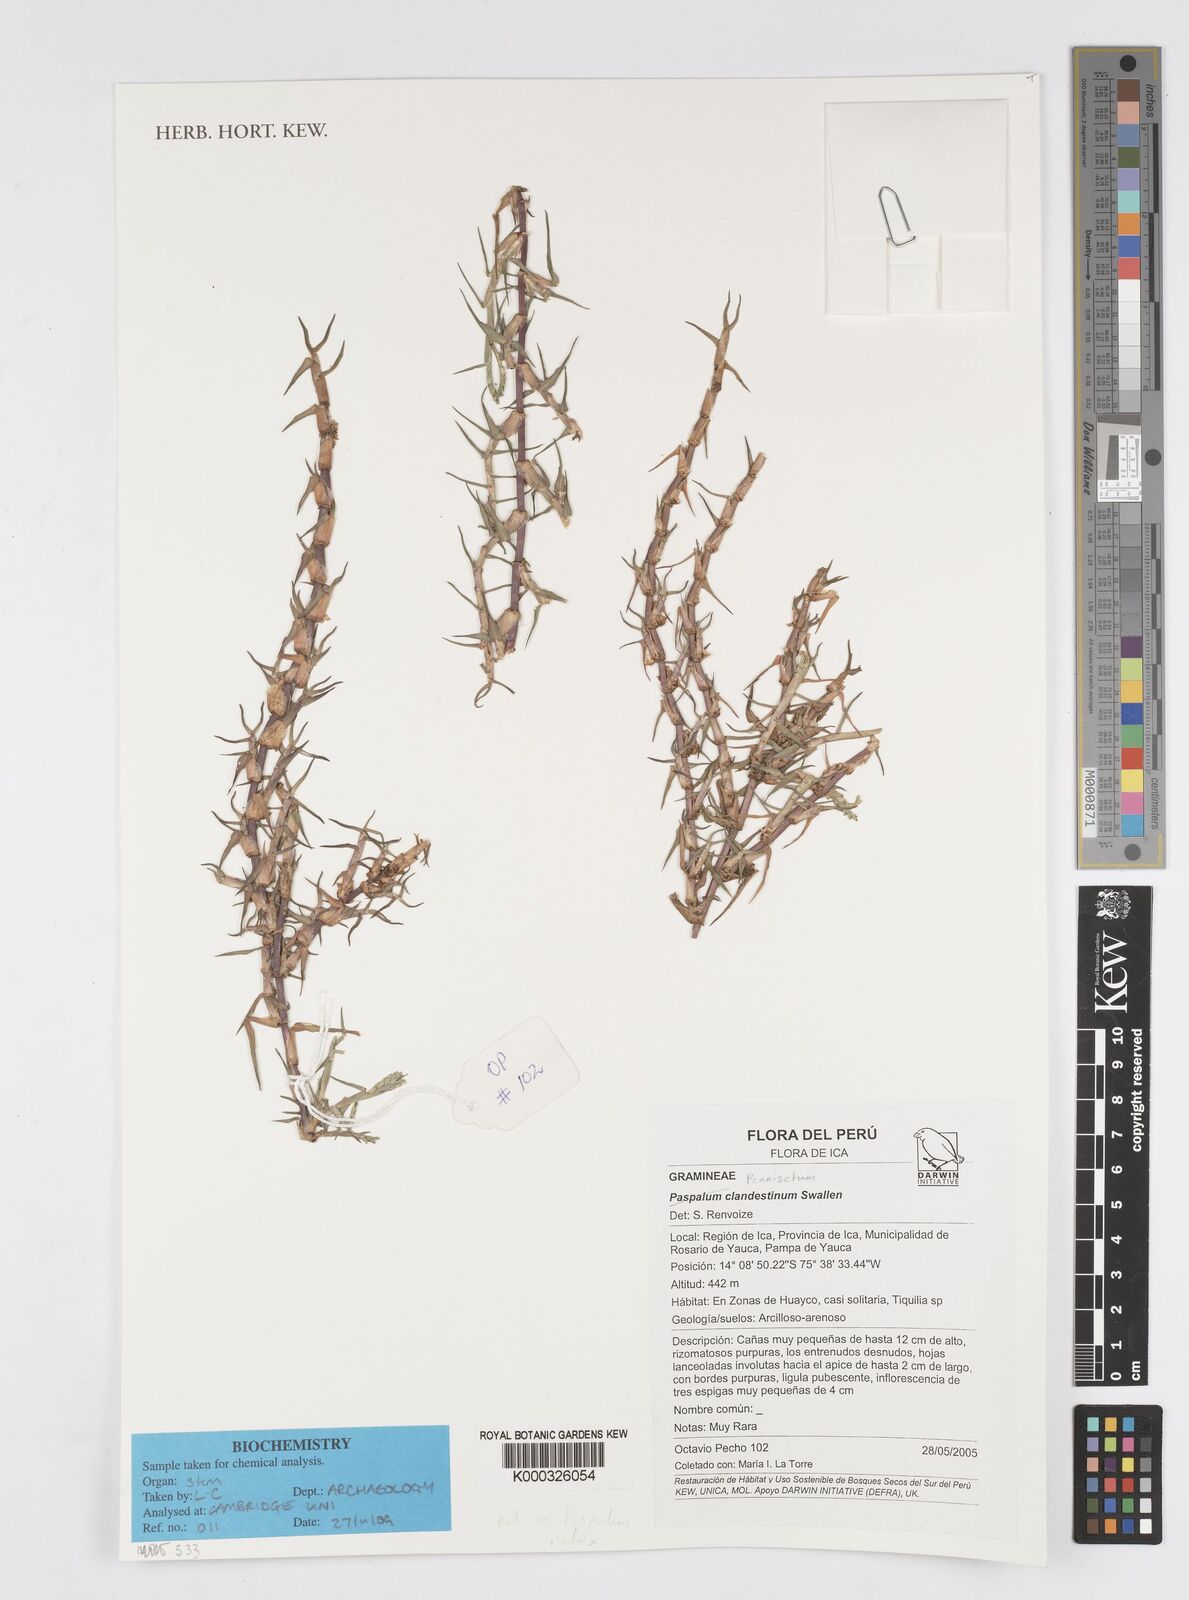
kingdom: Plantae
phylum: Tracheophyta
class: Liliopsida
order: Poales
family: Poaceae
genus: Cenchrus
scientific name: Cenchrus clandestinus
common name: Kikuyugrass
